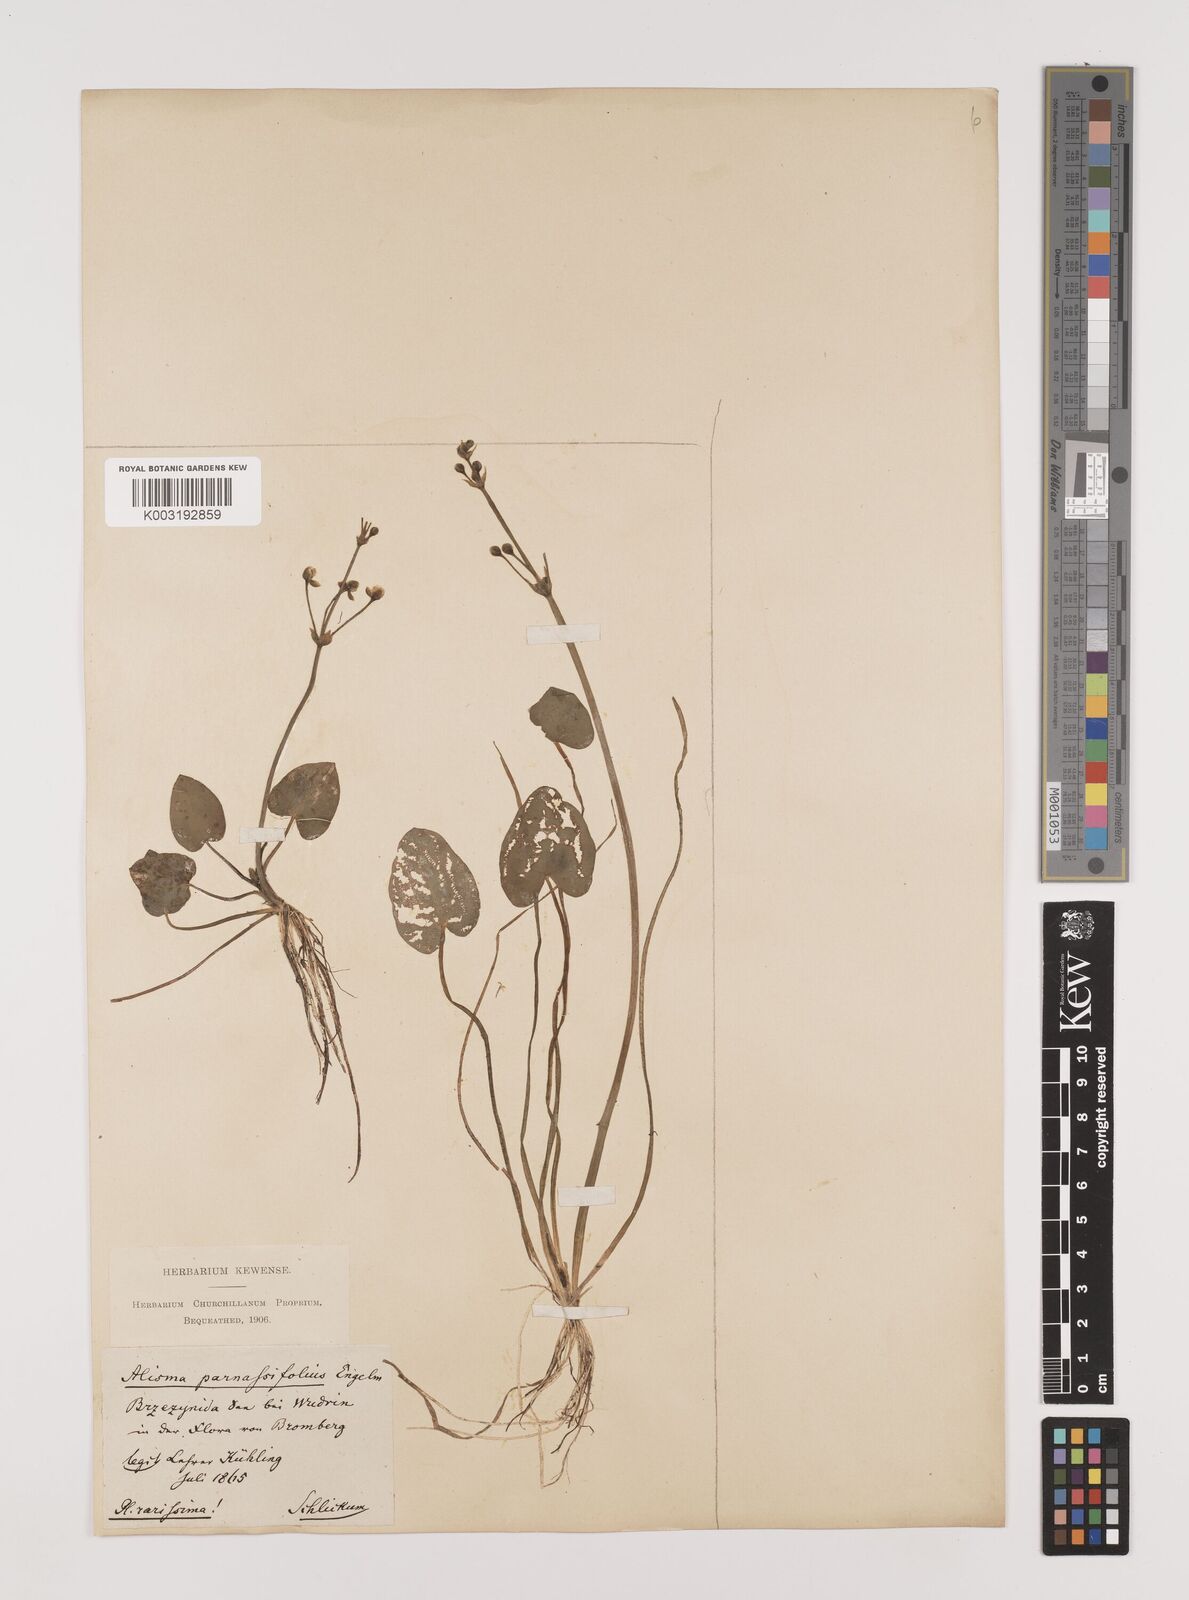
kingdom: Plantae
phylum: Tracheophyta
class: Liliopsida
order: Alismatales
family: Alismataceae
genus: Caldesia
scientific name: Caldesia parnassifolia
